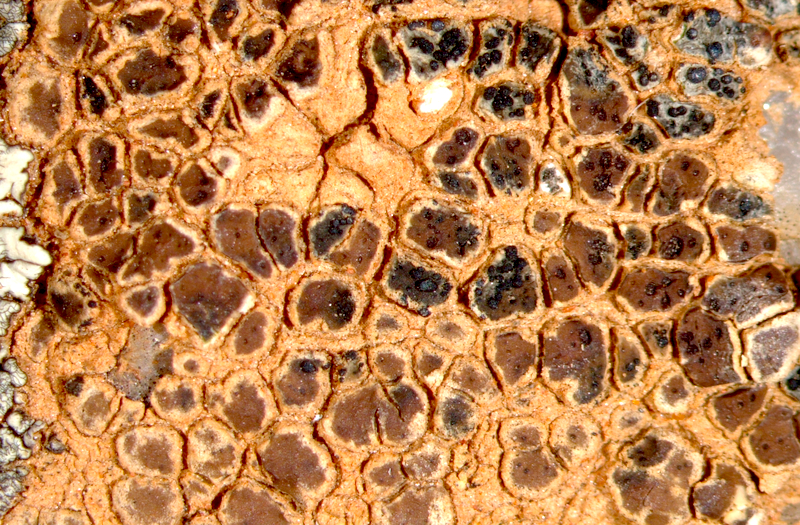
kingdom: Fungi
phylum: Ascomycota
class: Lecanoromycetes
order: Lecanorales
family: Parmeliaceae
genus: Paraparmelia
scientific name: Paraparmelia
